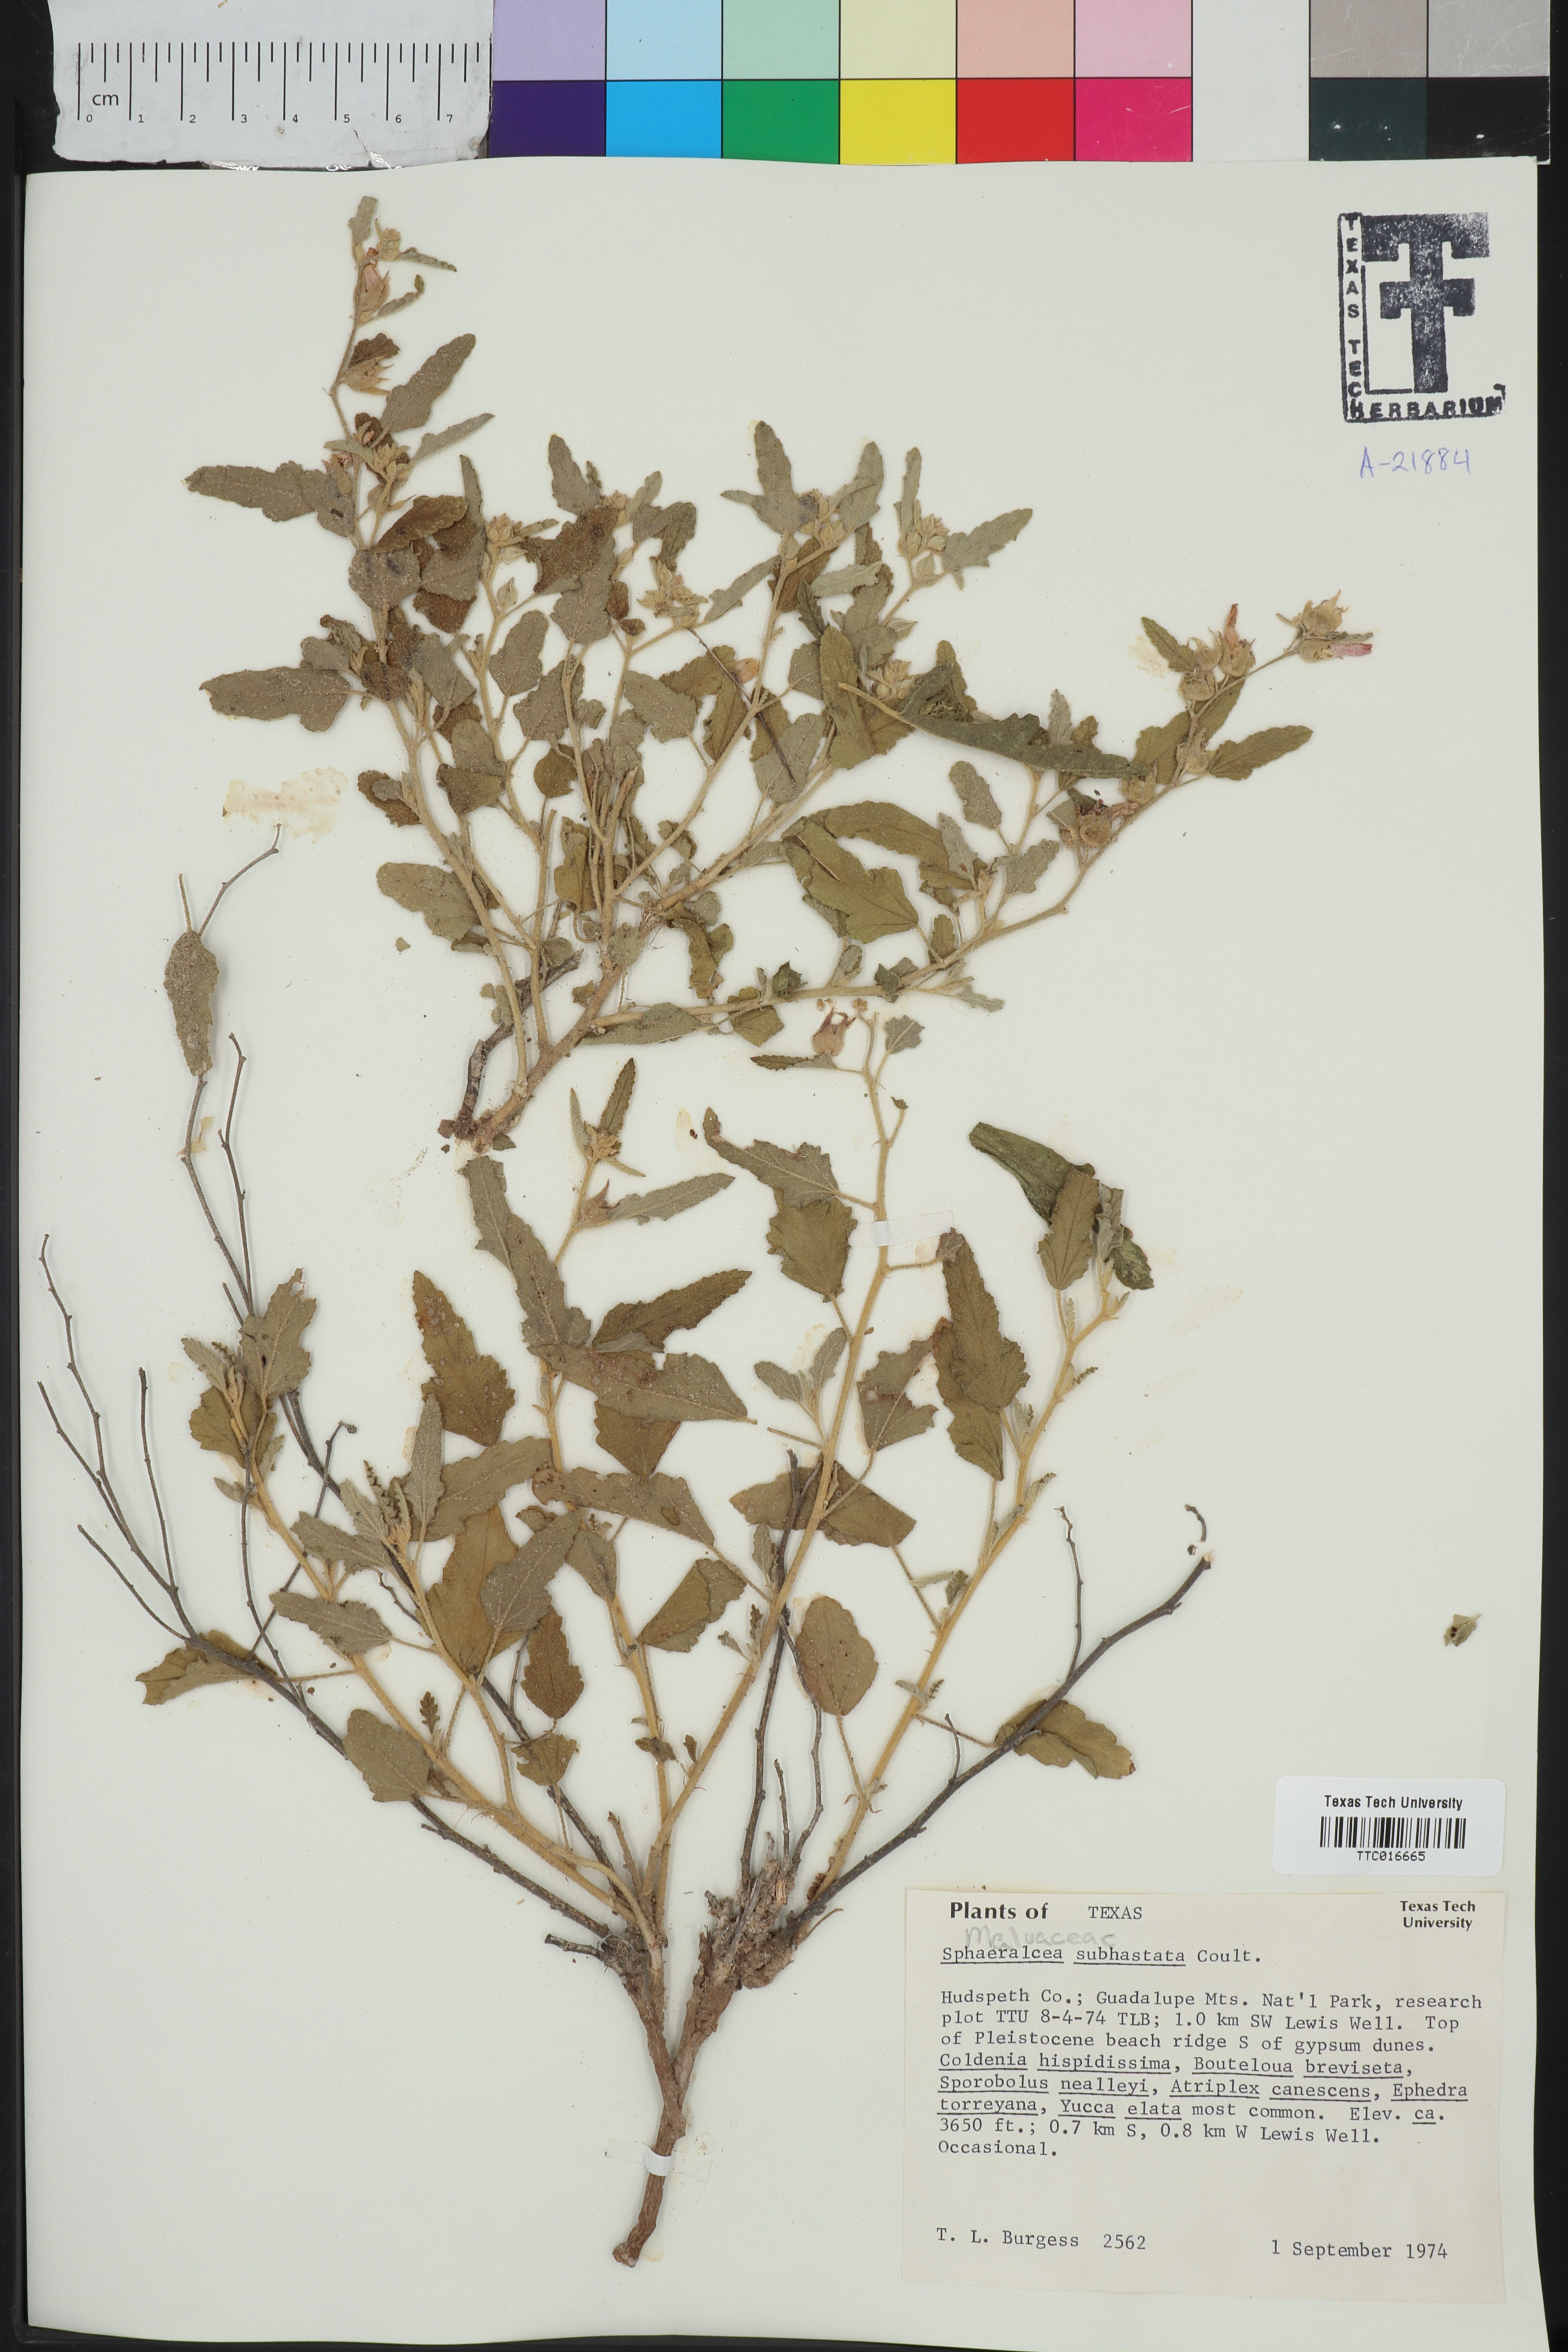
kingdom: Plantae
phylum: Tracheophyta
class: Magnoliopsida
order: Malvales
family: Malvaceae
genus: Sphaeralcea
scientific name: Sphaeralcea hastulata
